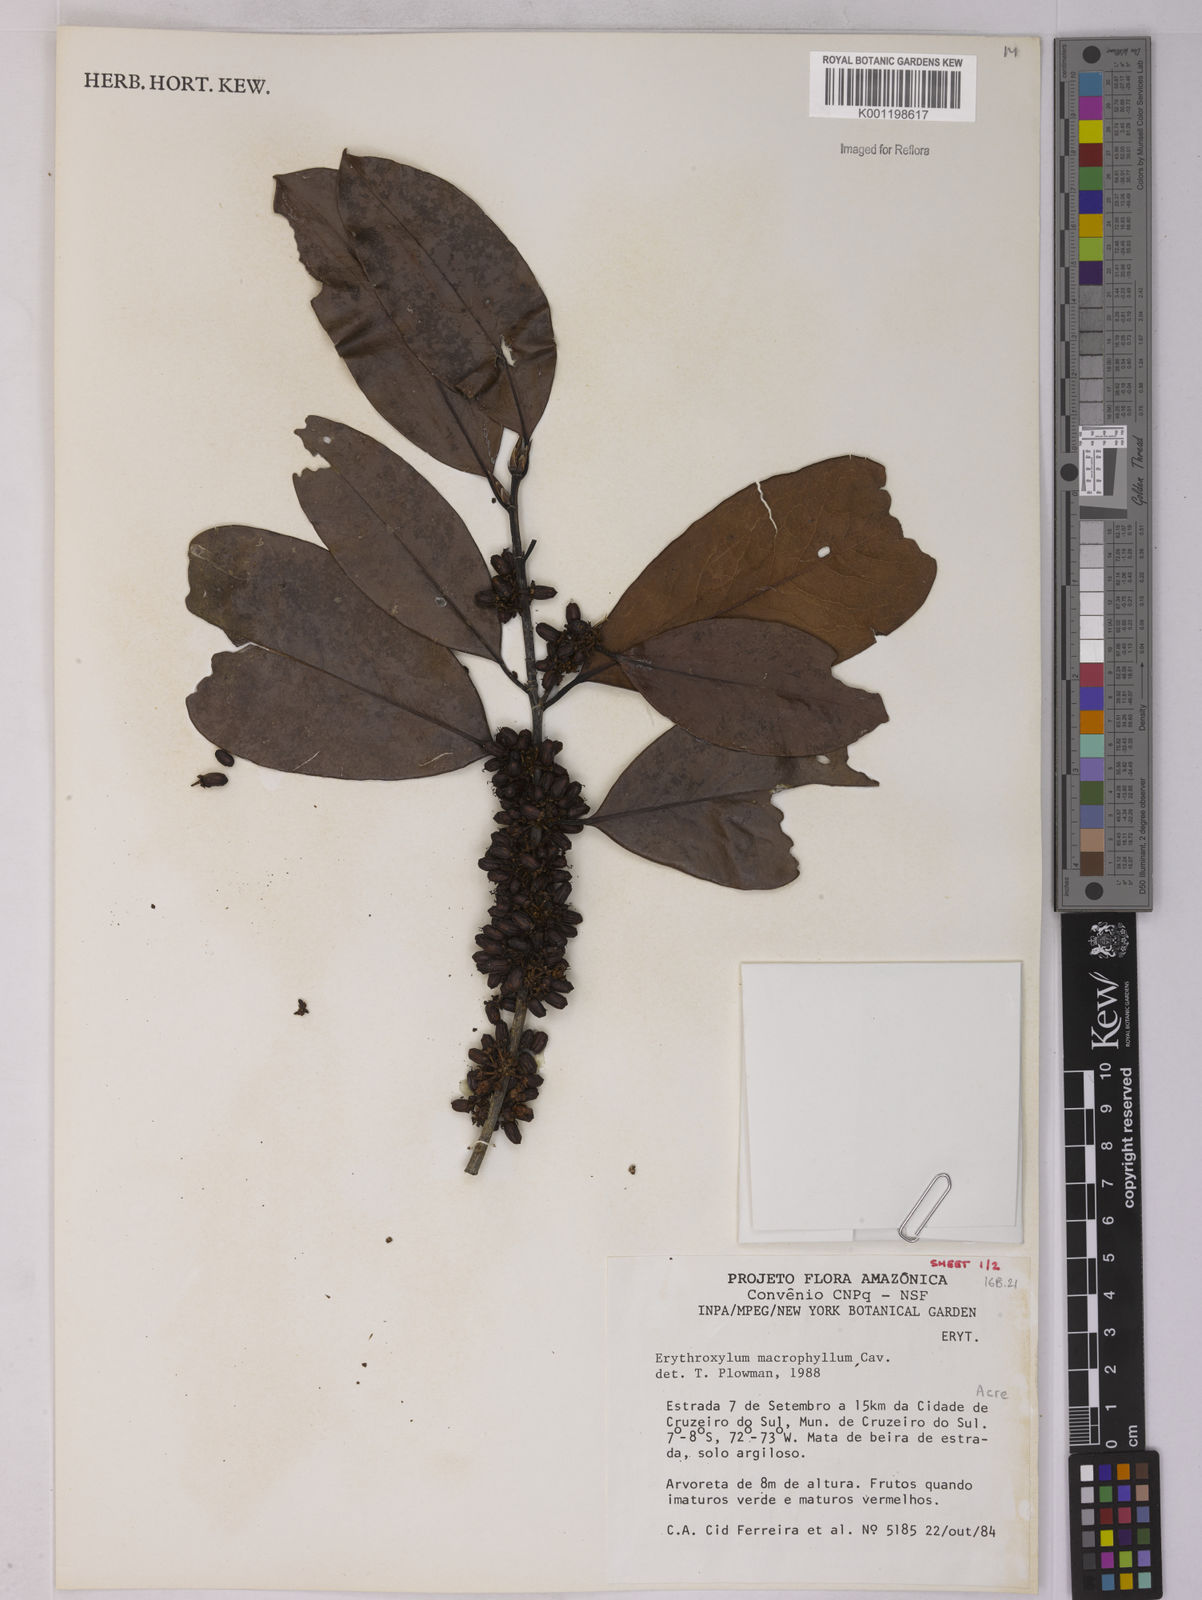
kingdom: Plantae
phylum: Tracheophyta
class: Magnoliopsida
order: Malpighiales
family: Erythroxylaceae
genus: Erythroxylum
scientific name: Erythroxylum macrophyllum
